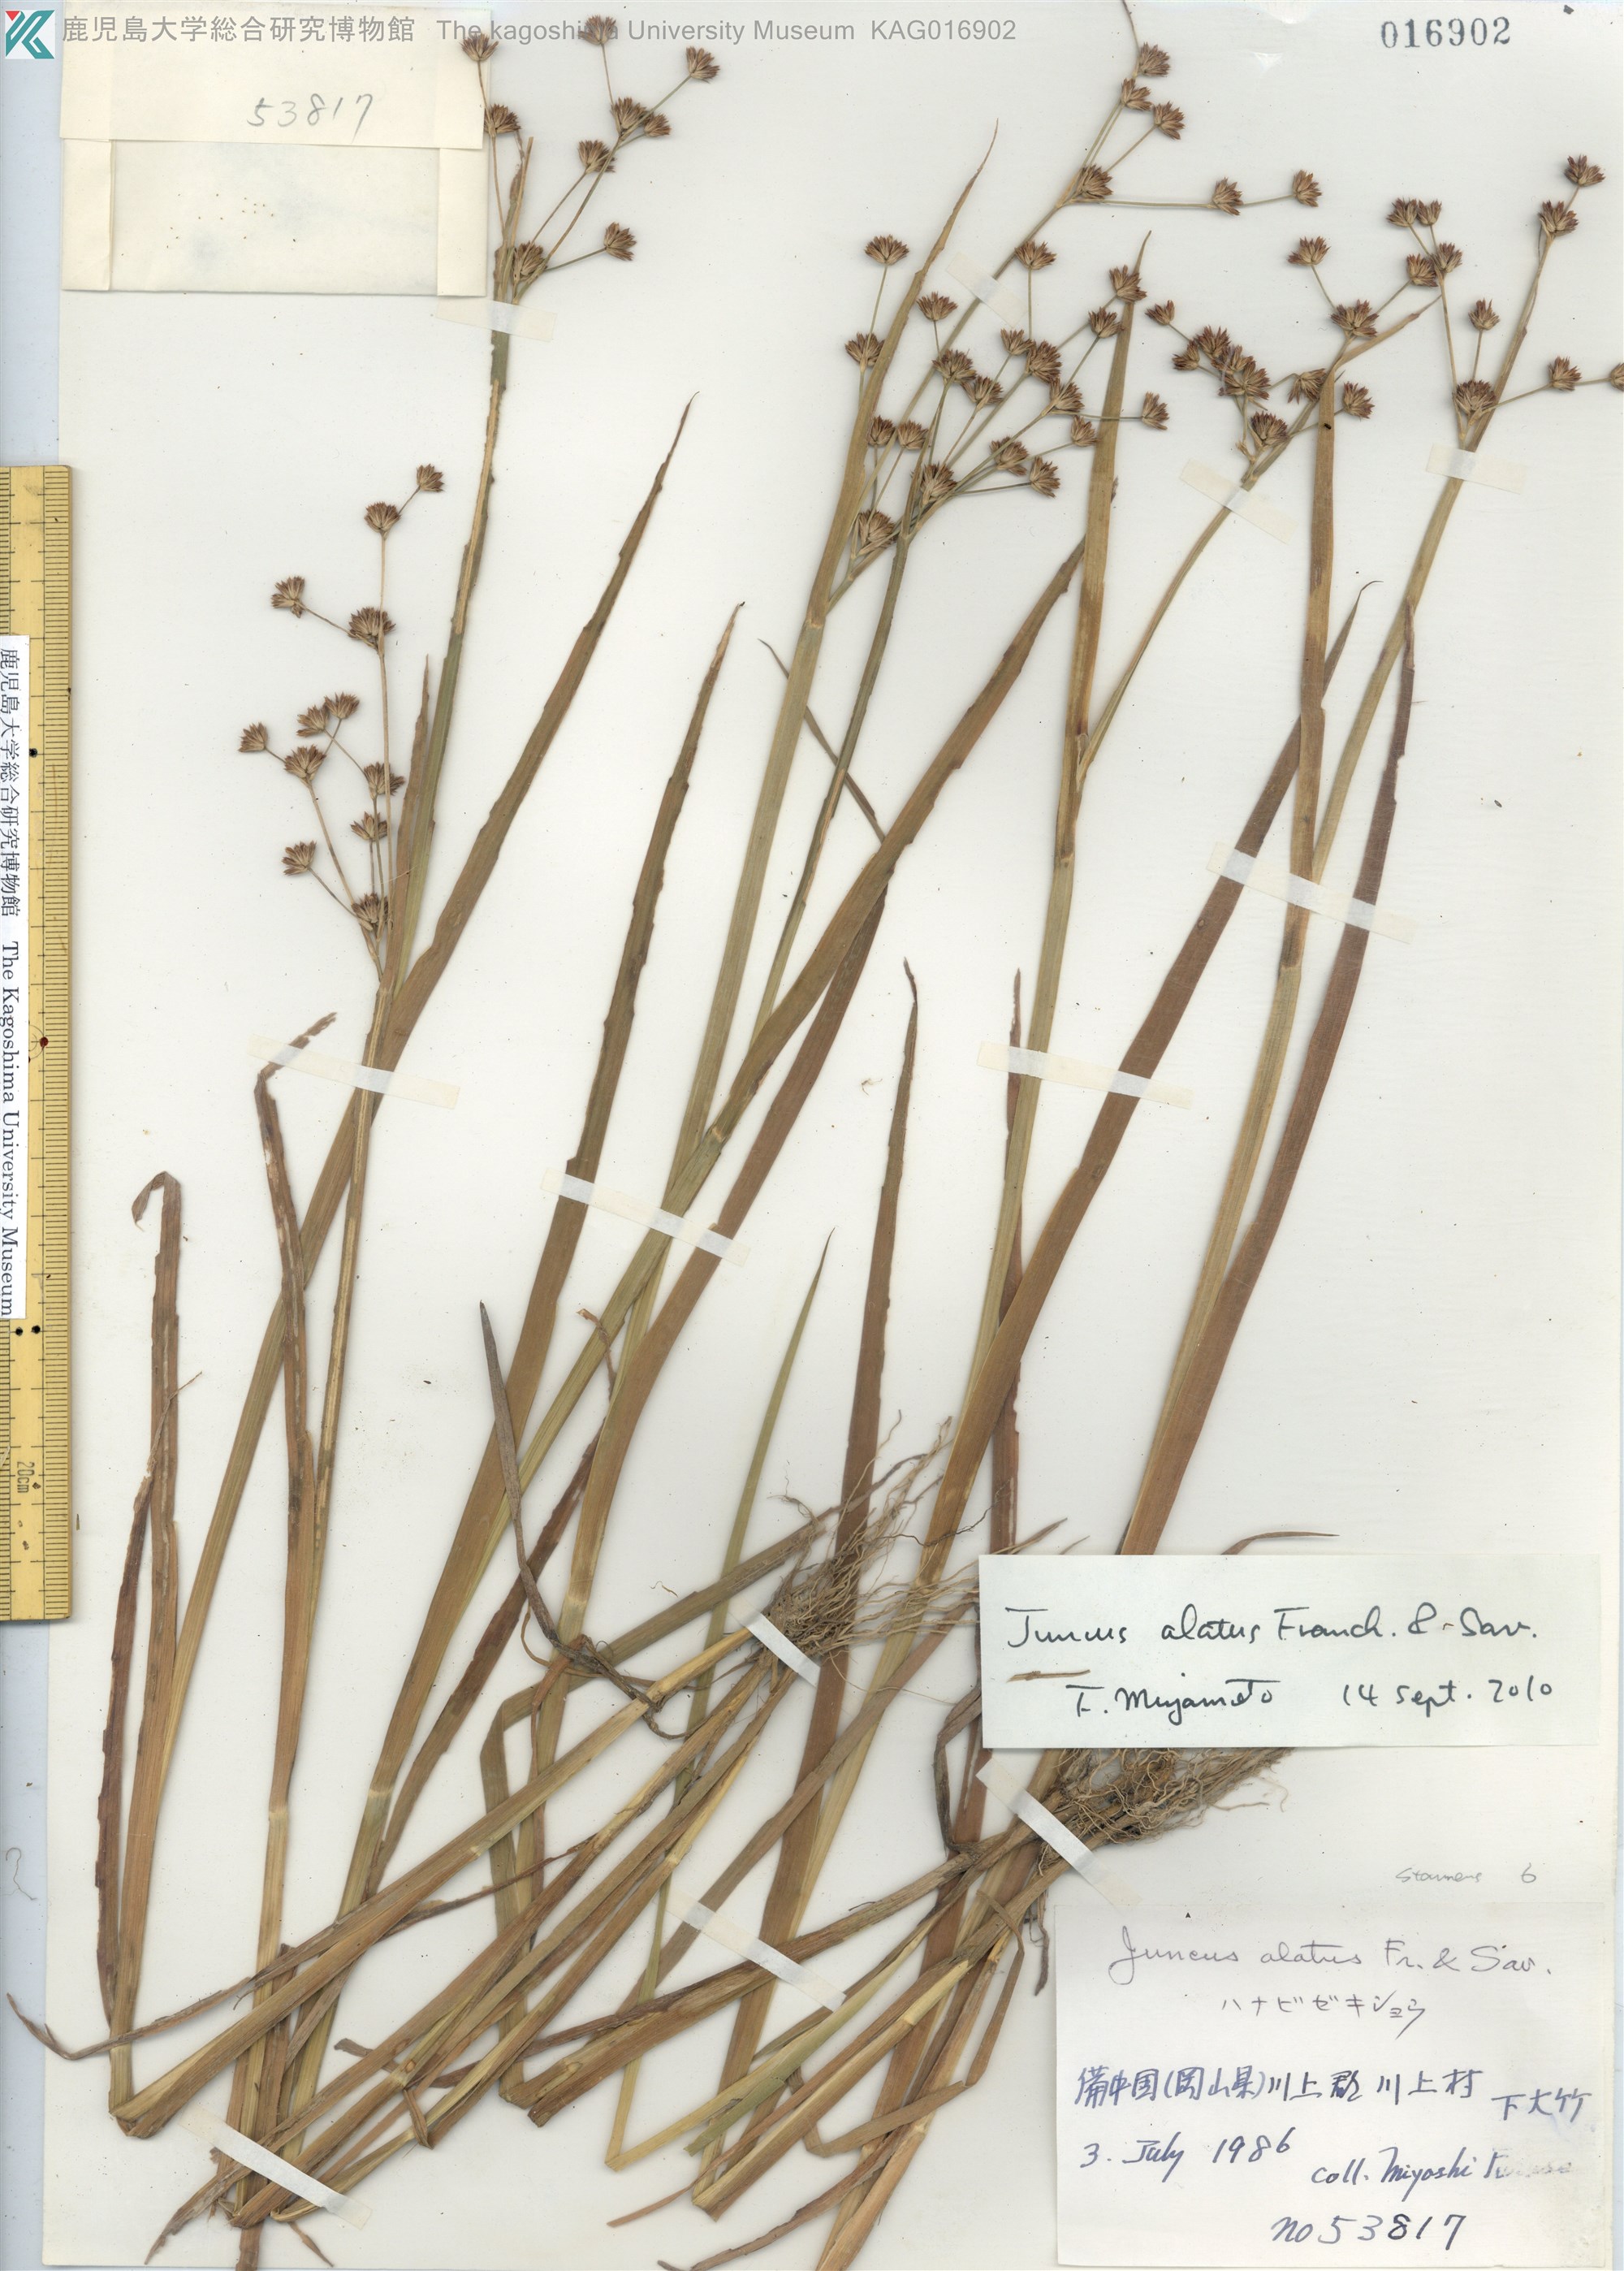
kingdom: Plantae
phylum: Tracheophyta
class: Liliopsida
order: Poales
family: Juncaceae
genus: Juncus
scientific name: Juncus alatus
